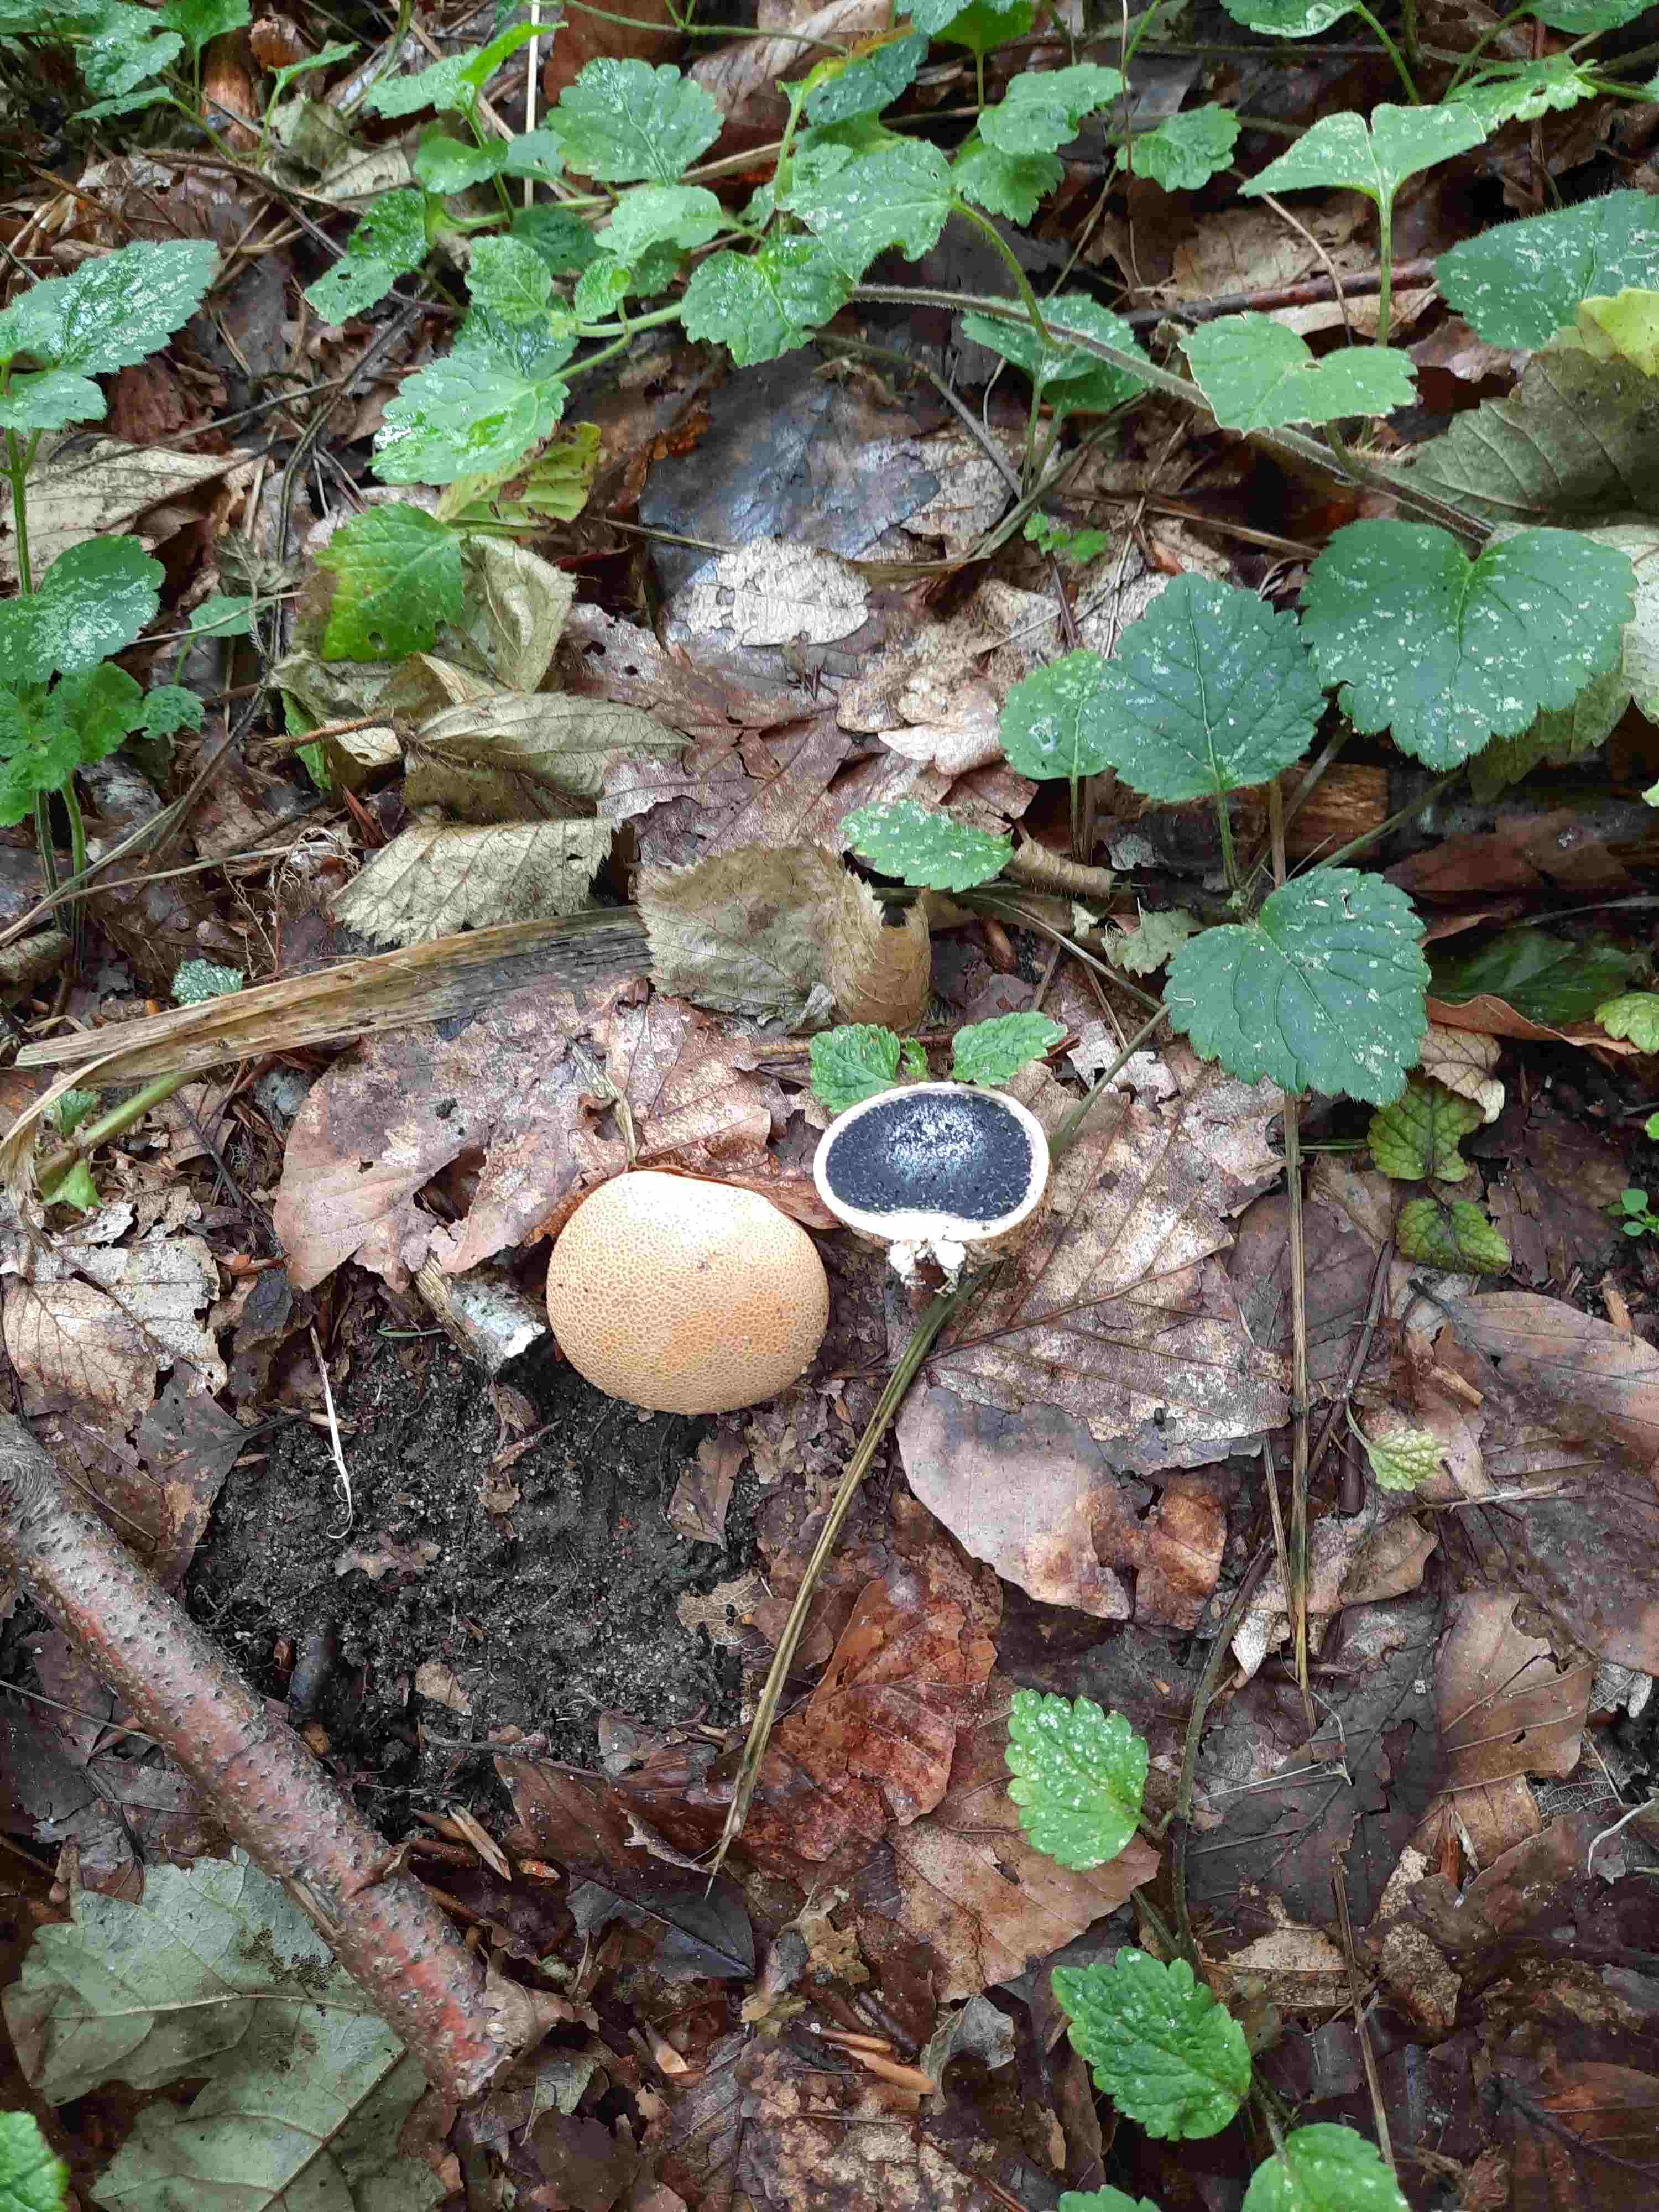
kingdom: Fungi
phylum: Basidiomycota
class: Agaricomycetes
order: Boletales
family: Sclerodermataceae
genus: Scleroderma
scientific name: Scleroderma citrinum
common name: almindelig bruskbold
